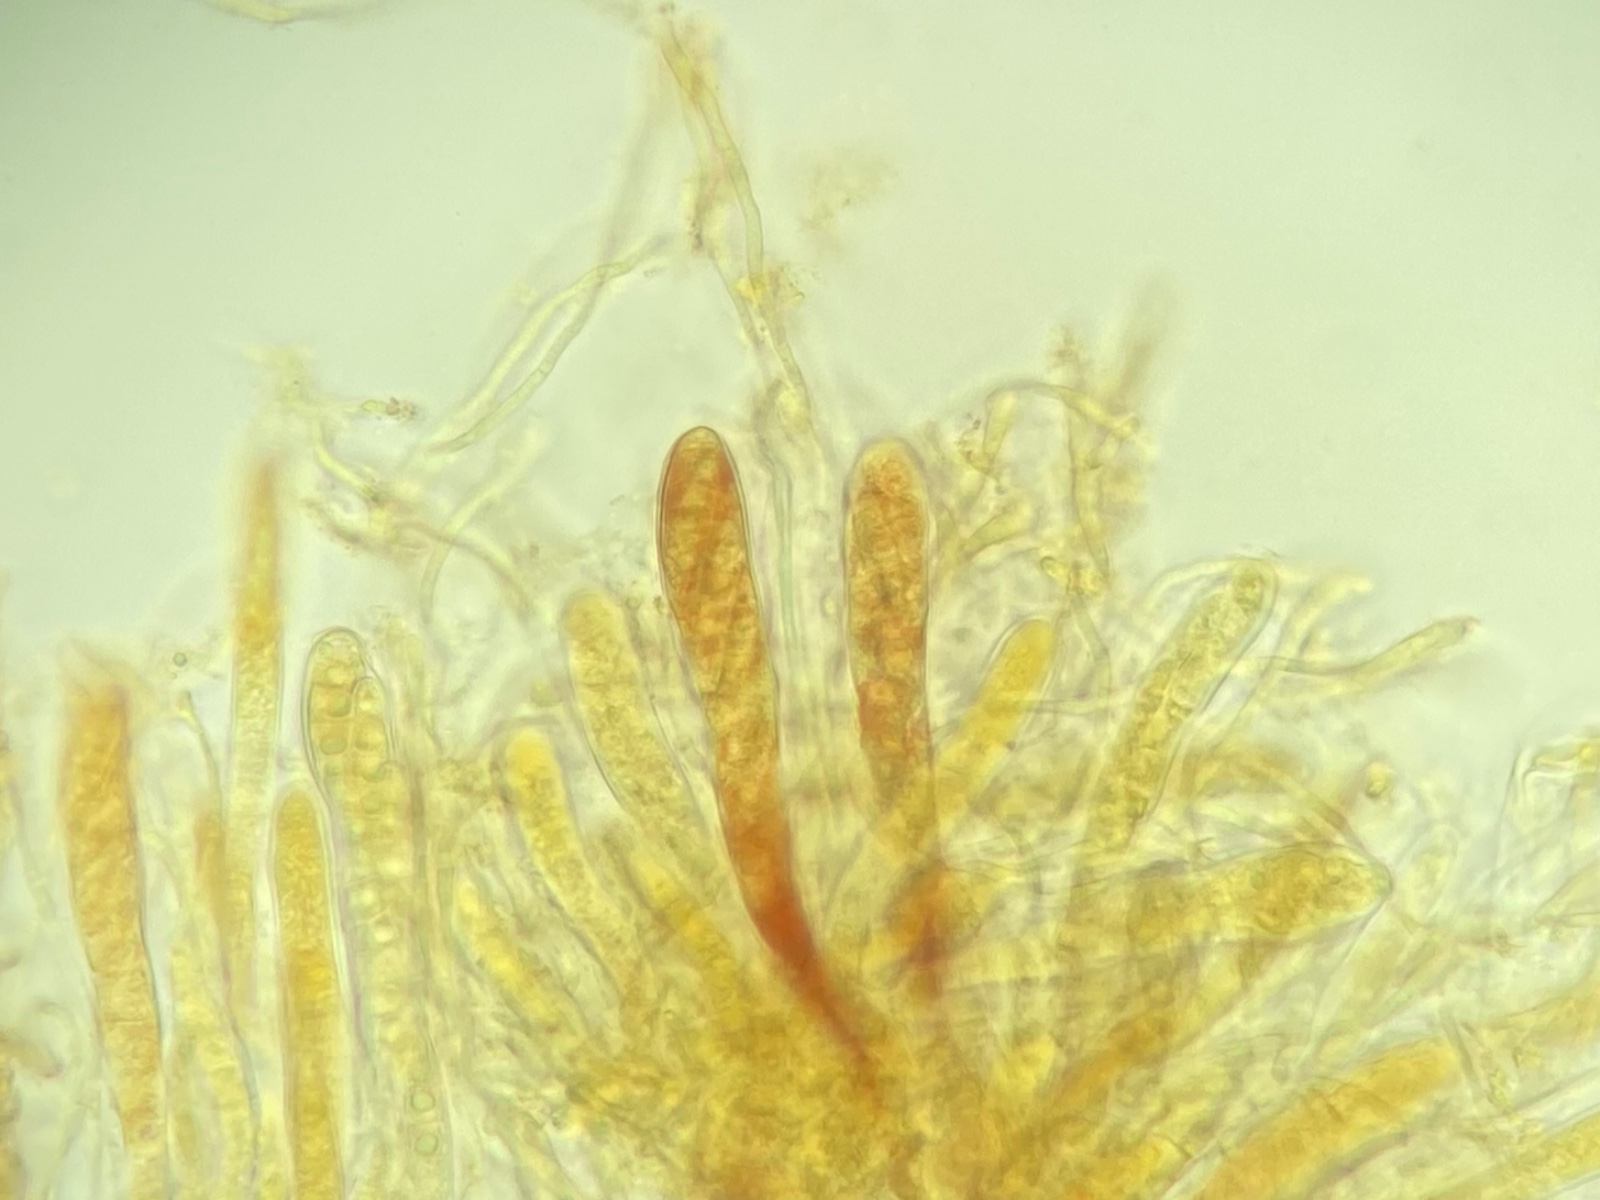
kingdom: Fungi
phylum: Ascomycota
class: Leotiomycetes
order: Helotiales
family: Helotiaceae
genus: Durella
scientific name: Durella atrocyanea
